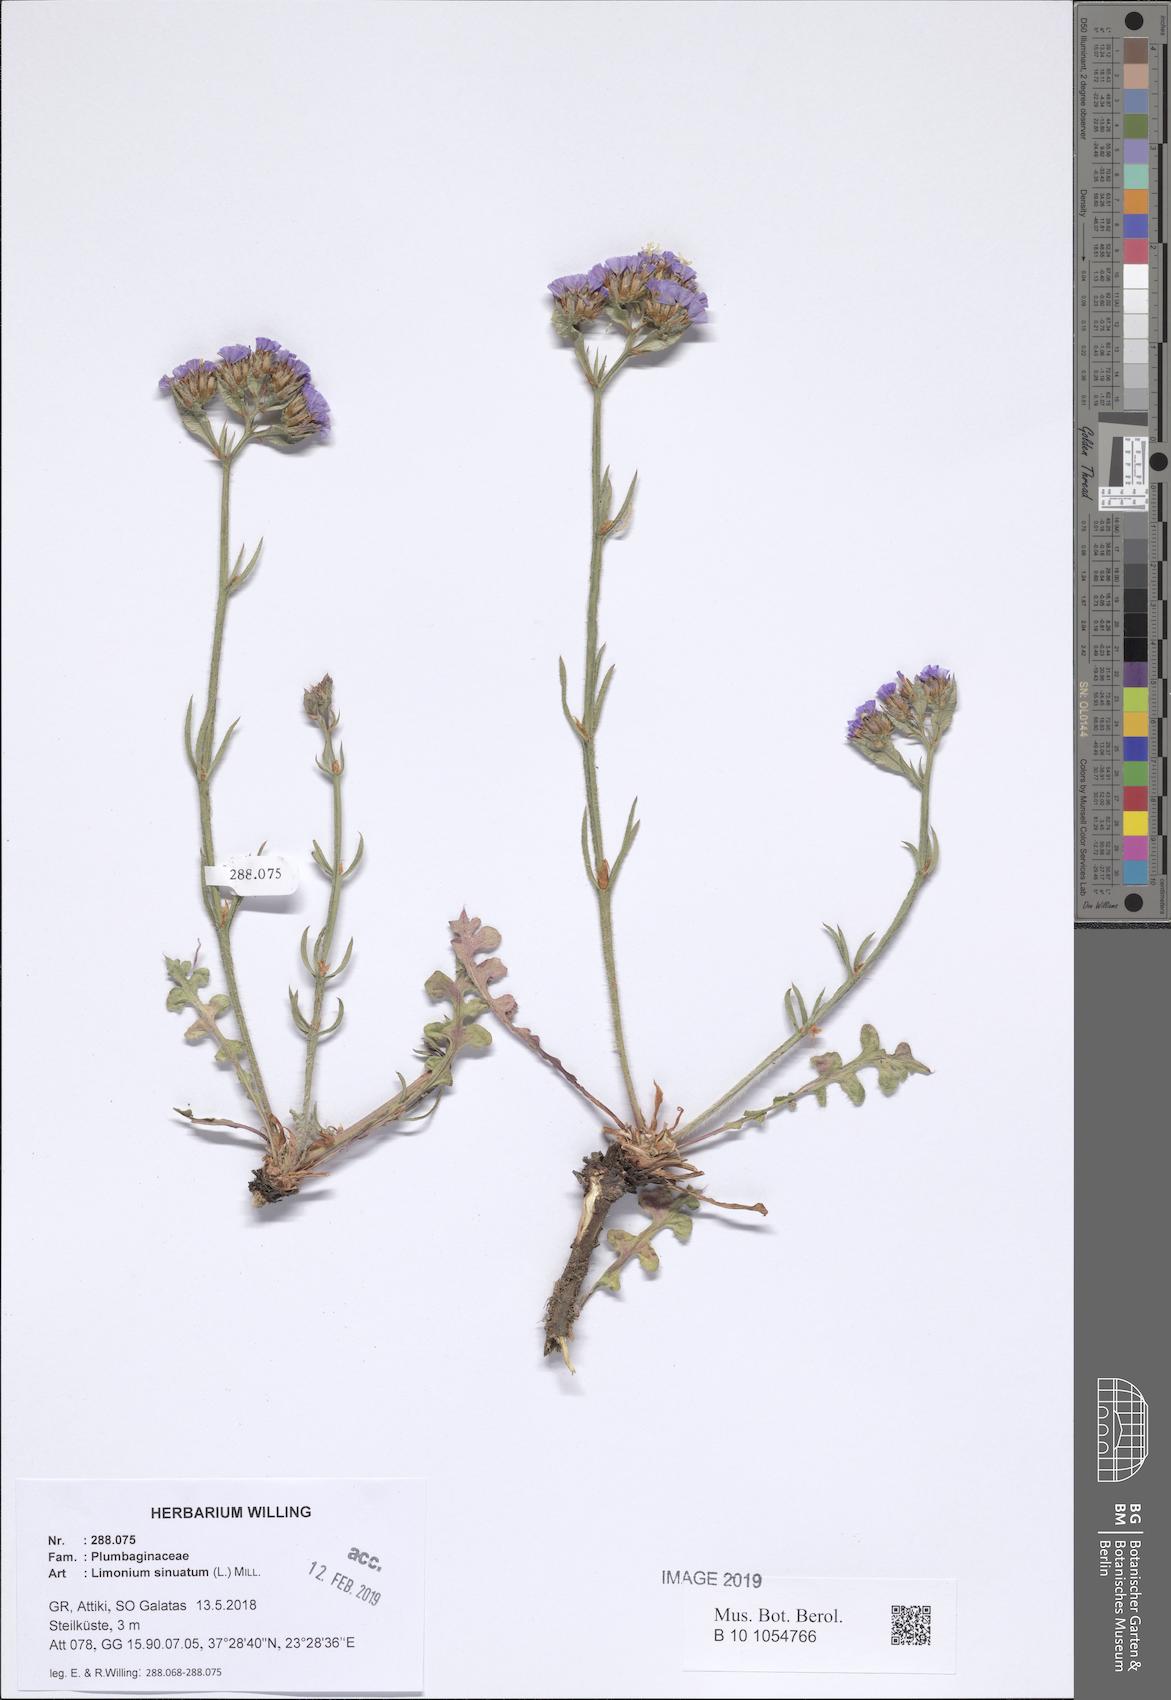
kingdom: Plantae
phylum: Tracheophyta
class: Magnoliopsida
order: Caryophyllales
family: Plumbaginaceae
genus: Limonium
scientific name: Limonium sinuatum
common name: Statice
